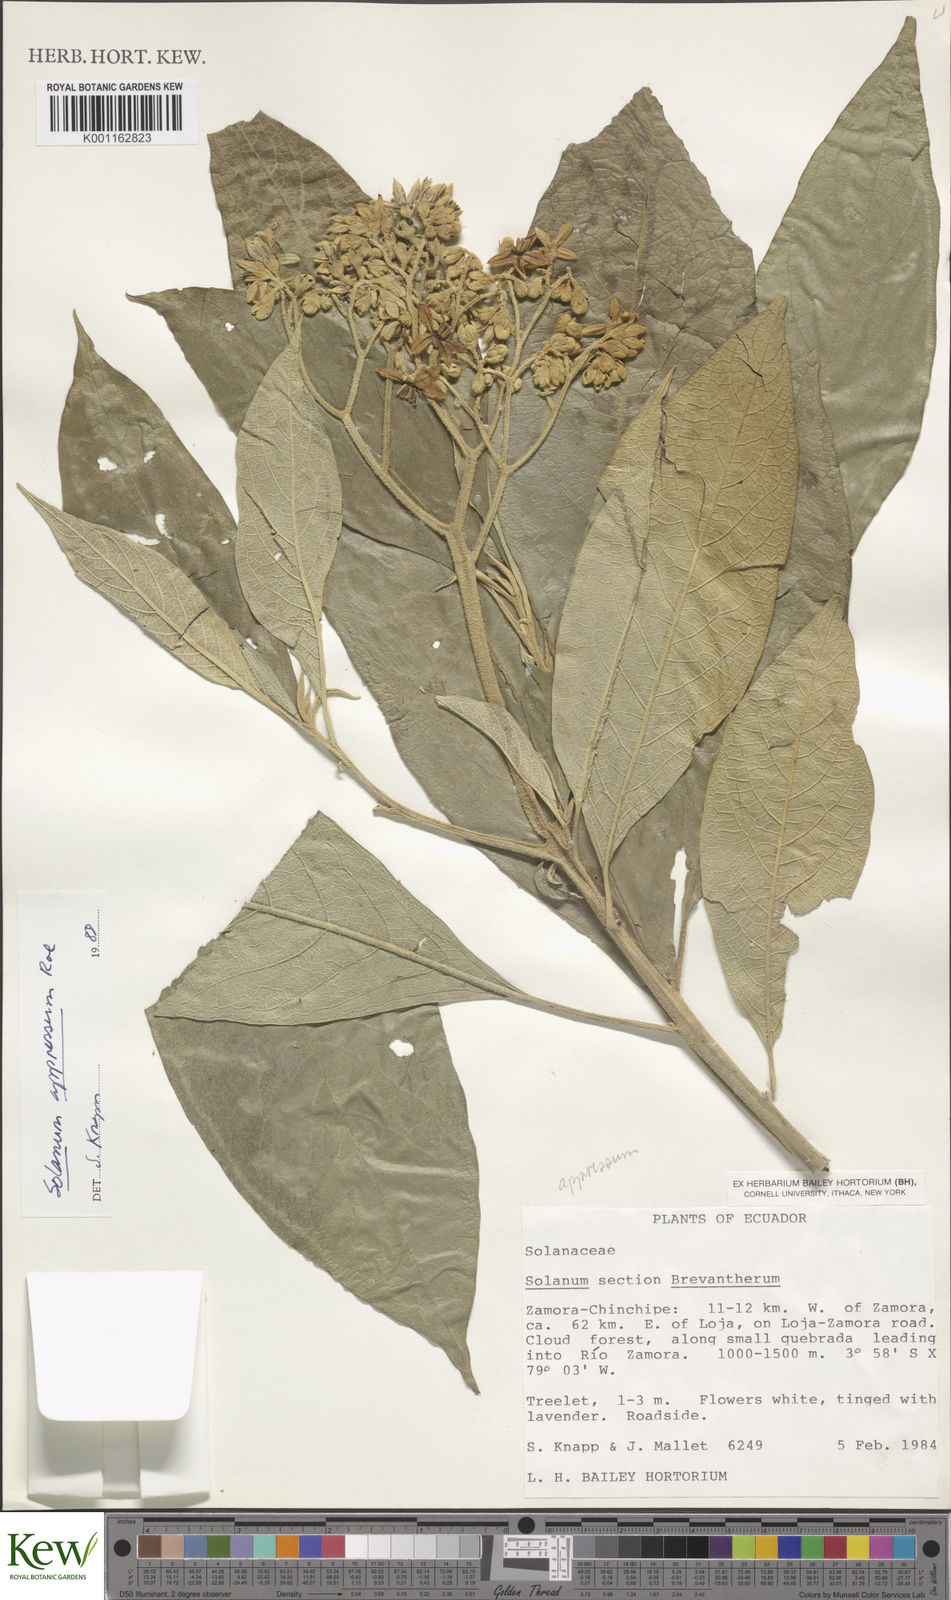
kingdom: Plantae
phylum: Tracheophyta
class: Magnoliopsida
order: Solanales
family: Solanaceae
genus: Solanum
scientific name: Solanum appressum
